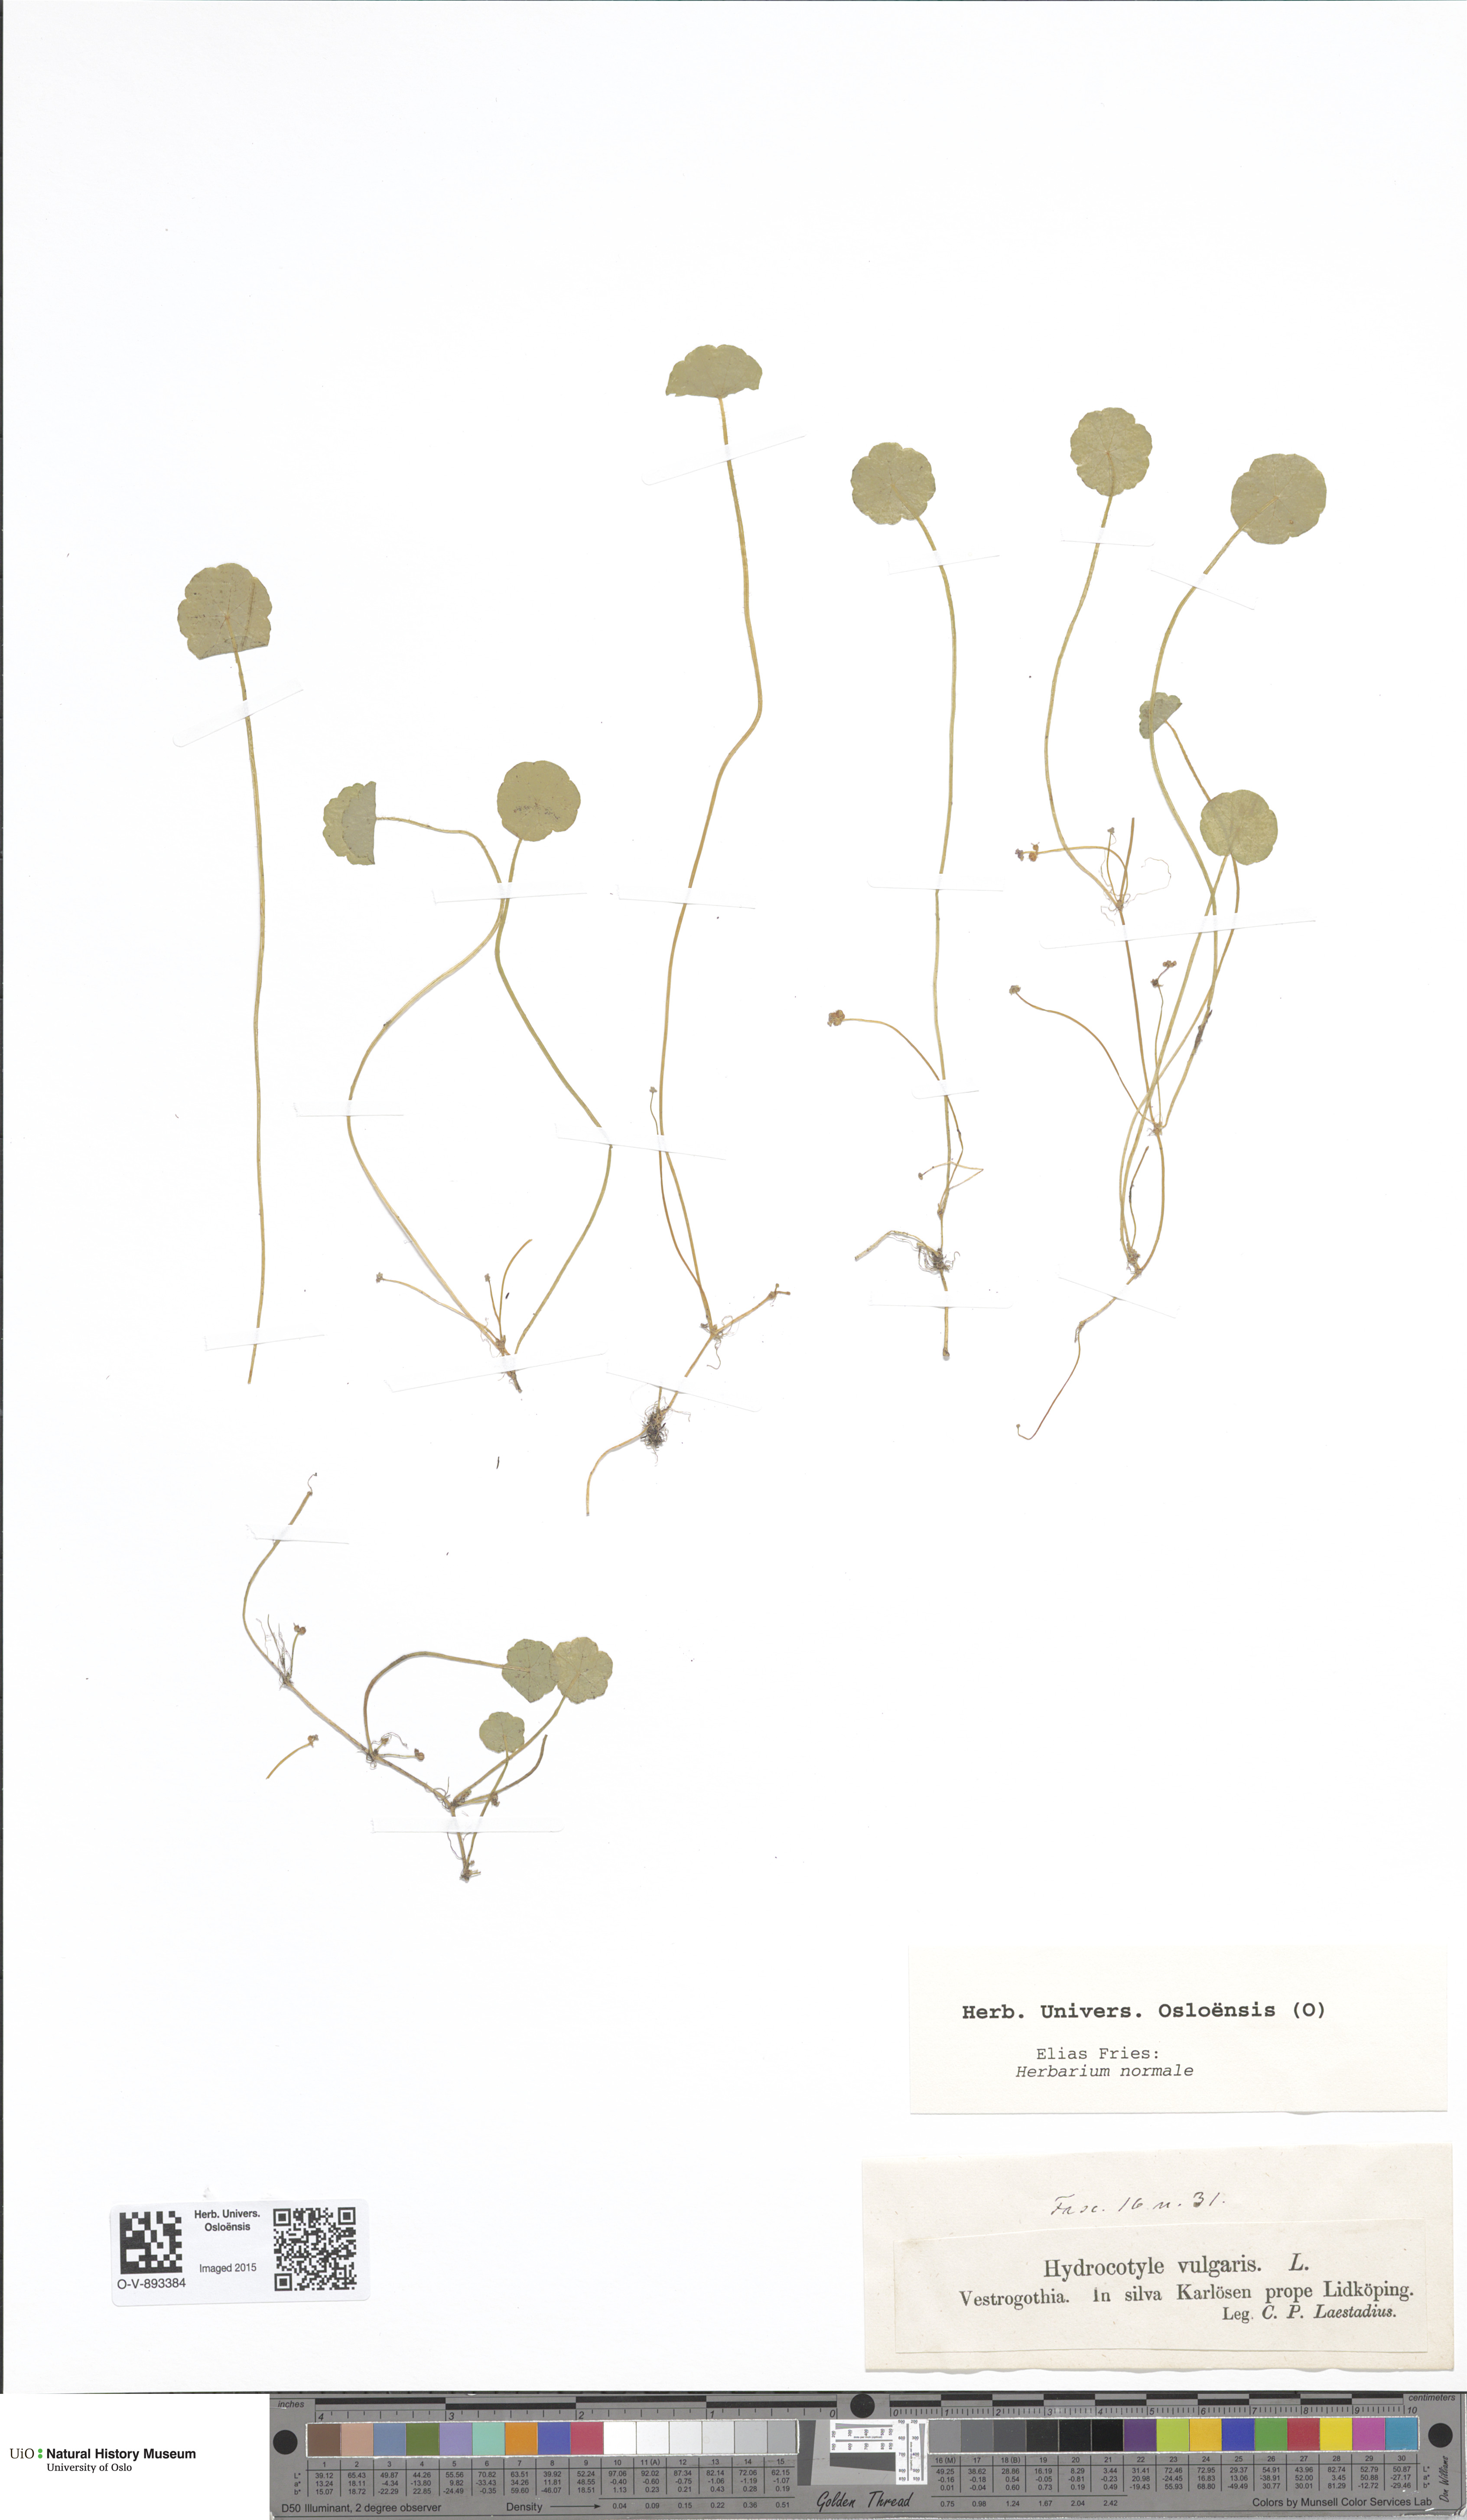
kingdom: Plantae
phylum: Tracheophyta
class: Magnoliopsida
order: Apiales
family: Araliaceae
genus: Hydrocotyle
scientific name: Hydrocotyle vulgaris
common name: Marsh pennywort
